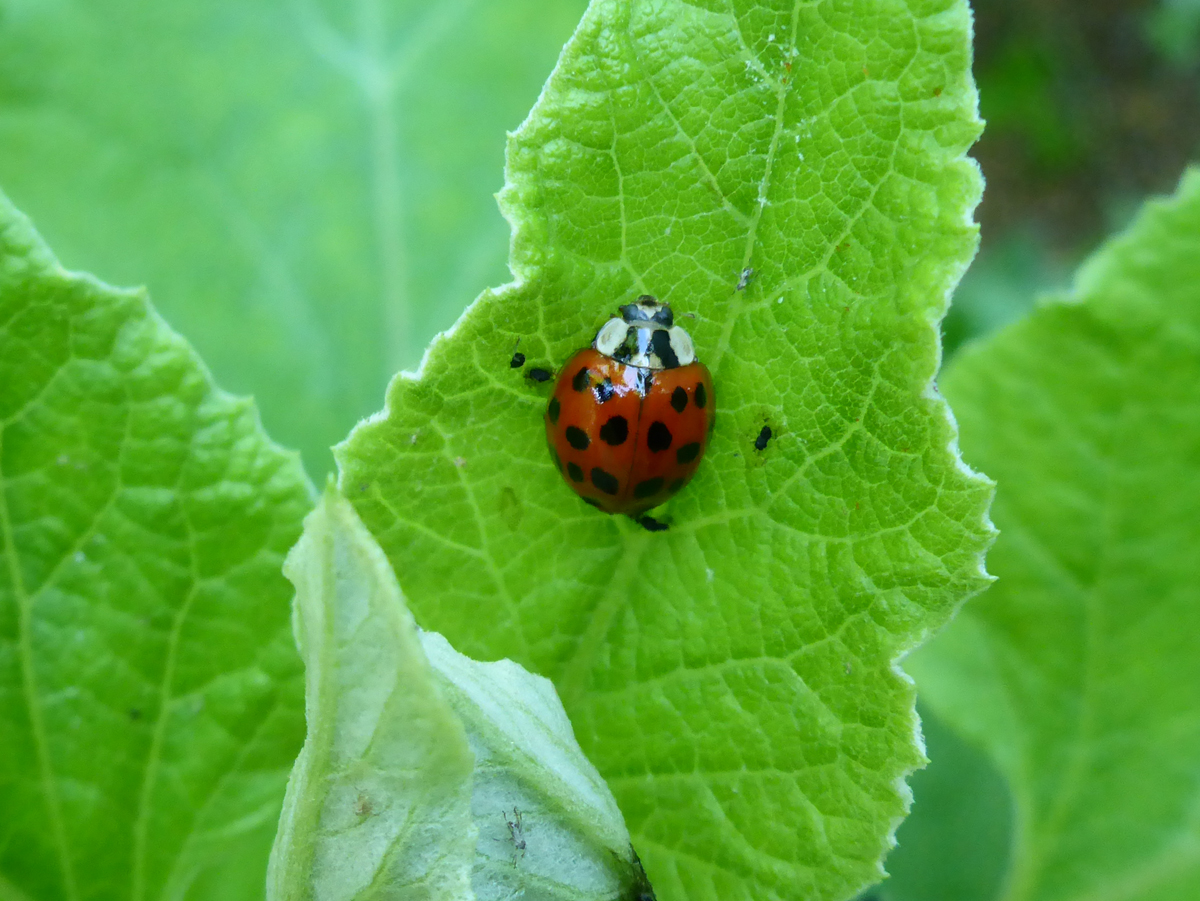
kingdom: Animalia
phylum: Arthropoda
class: Insecta
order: Coleoptera
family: Coccinellidae
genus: Harmonia
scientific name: Harmonia axyridis
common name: Harlequin ladybird
